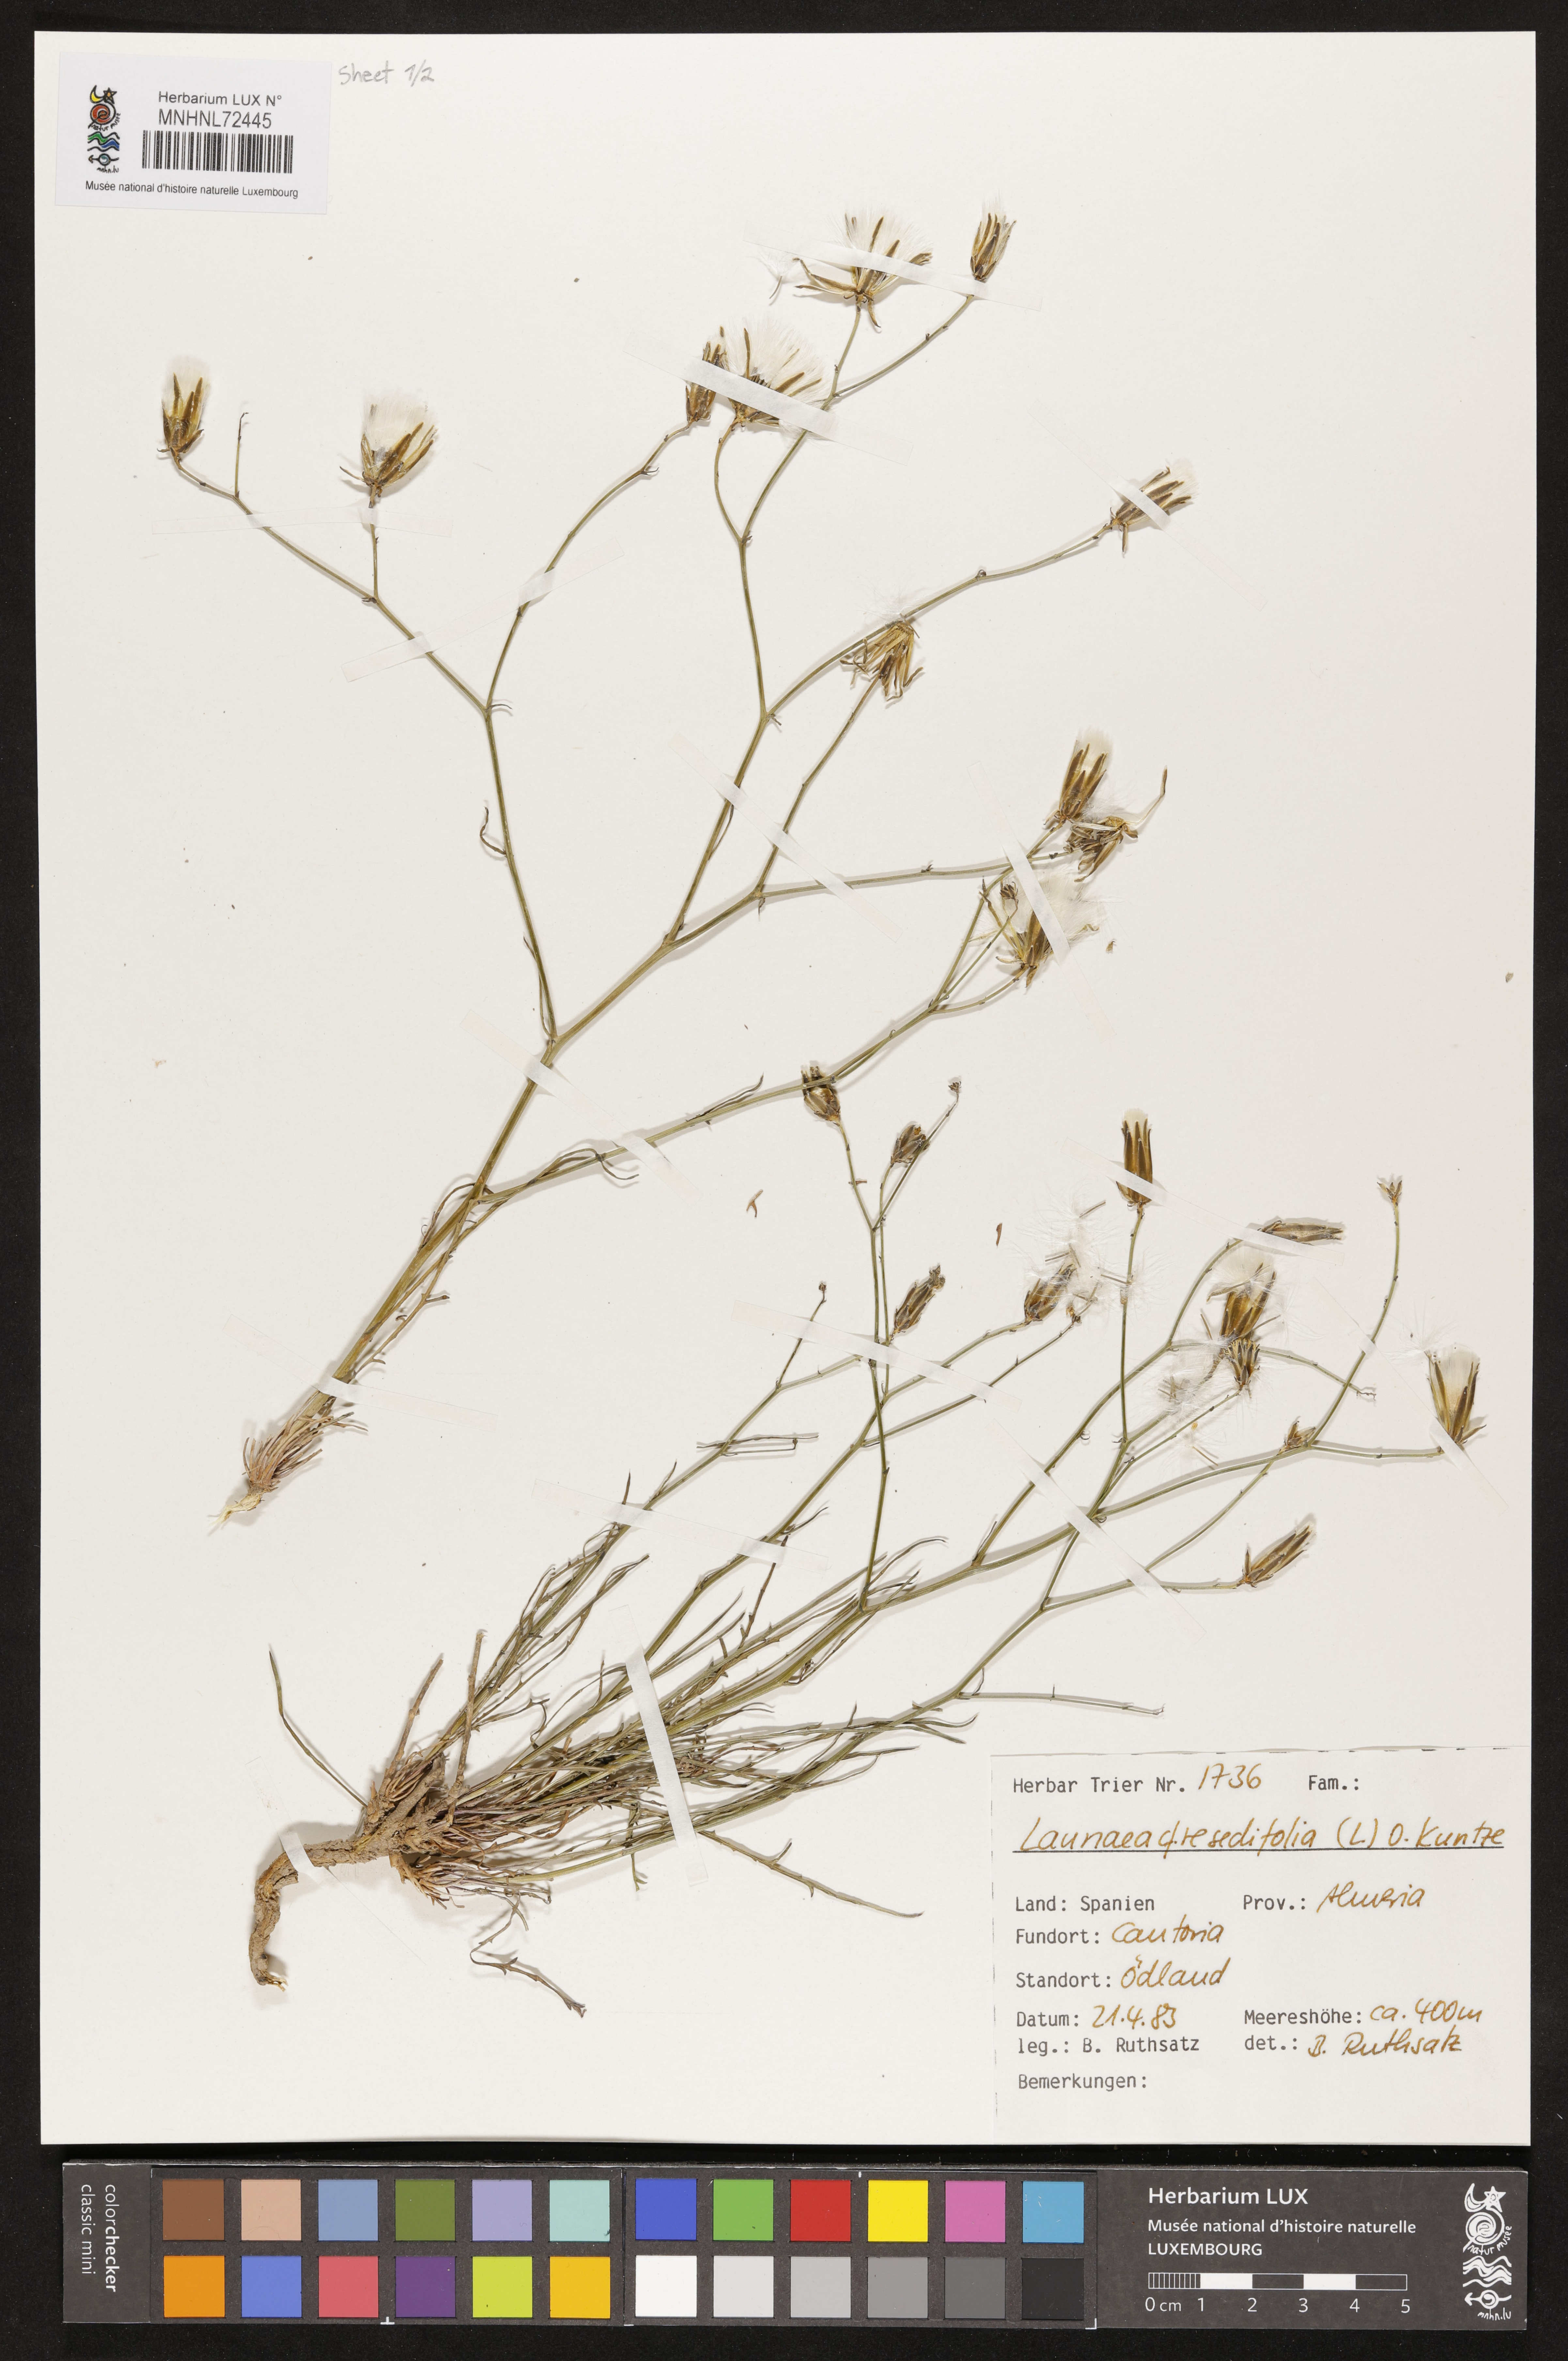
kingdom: Plantae
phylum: Tracheophyta
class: Magnoliopsida
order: Asterales
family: Asteraceae
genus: Launaea
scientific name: Launaea fragilis
